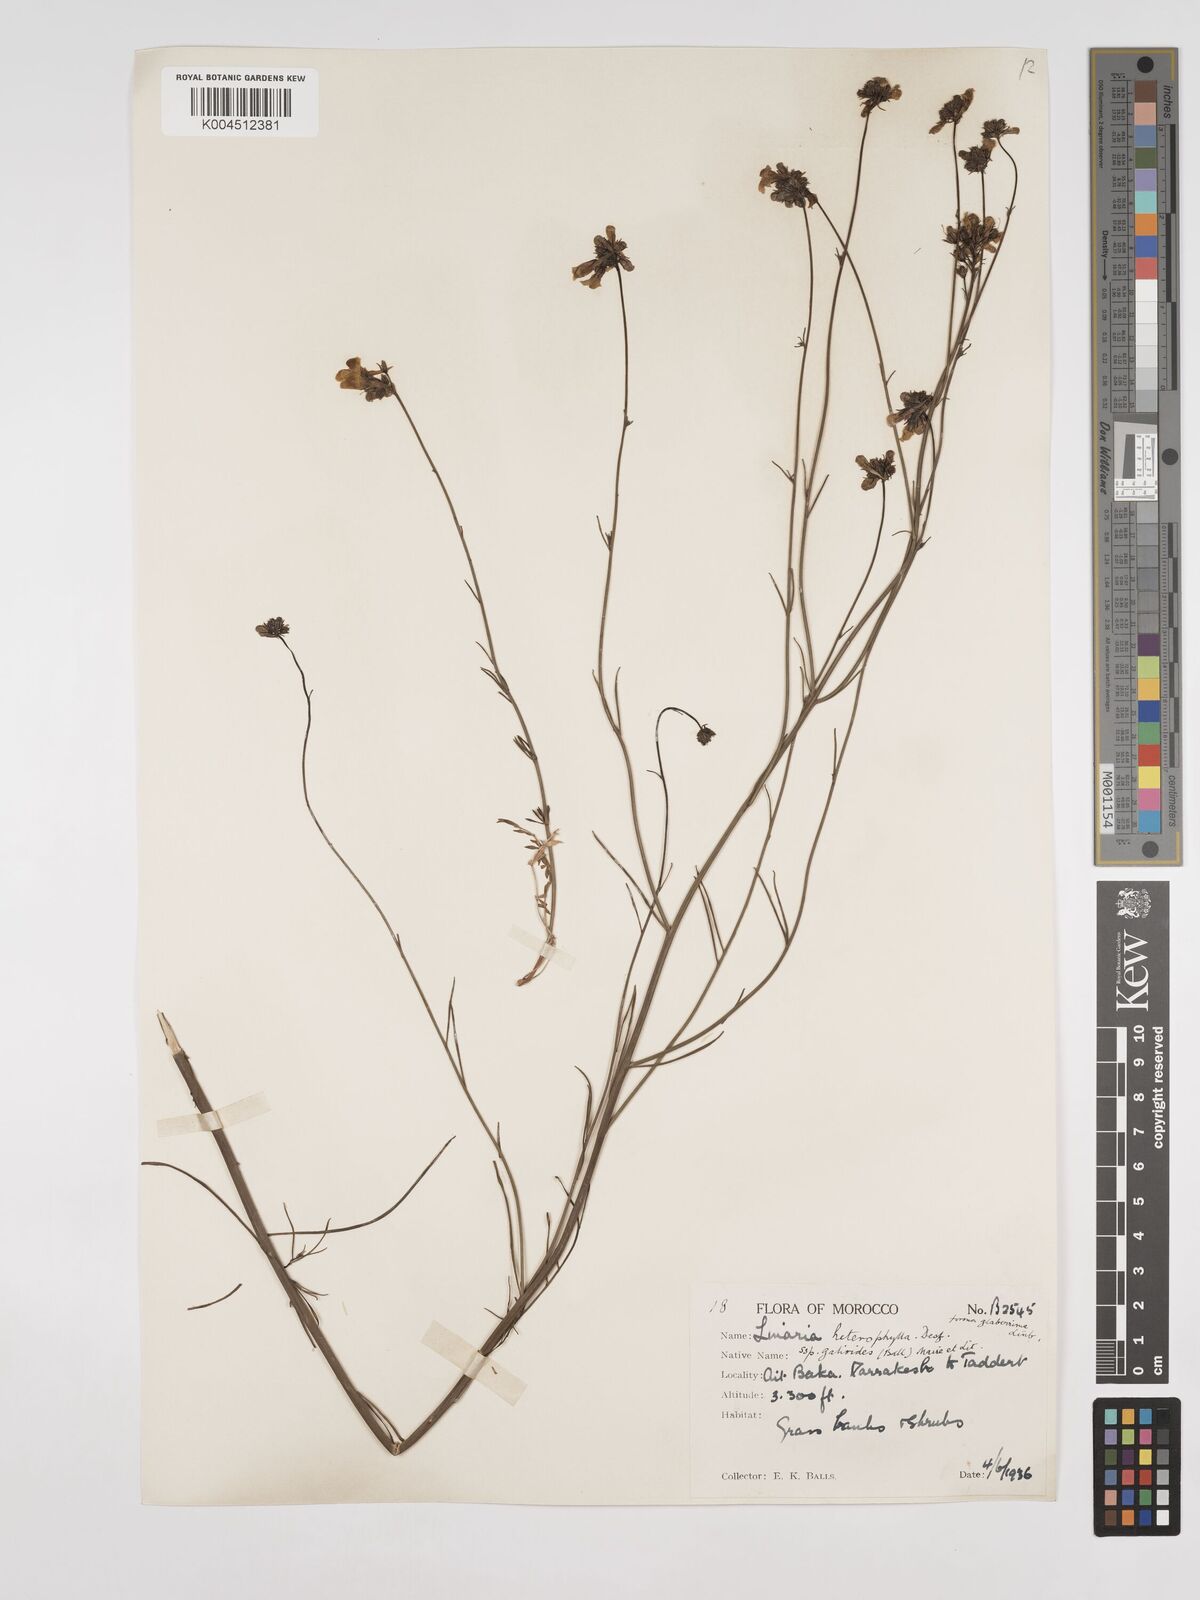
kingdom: Plantae
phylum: Tracheophyta
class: Magnoliopsida
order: Lamiales
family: Plantaginaceae
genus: Linaria
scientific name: Linaria
